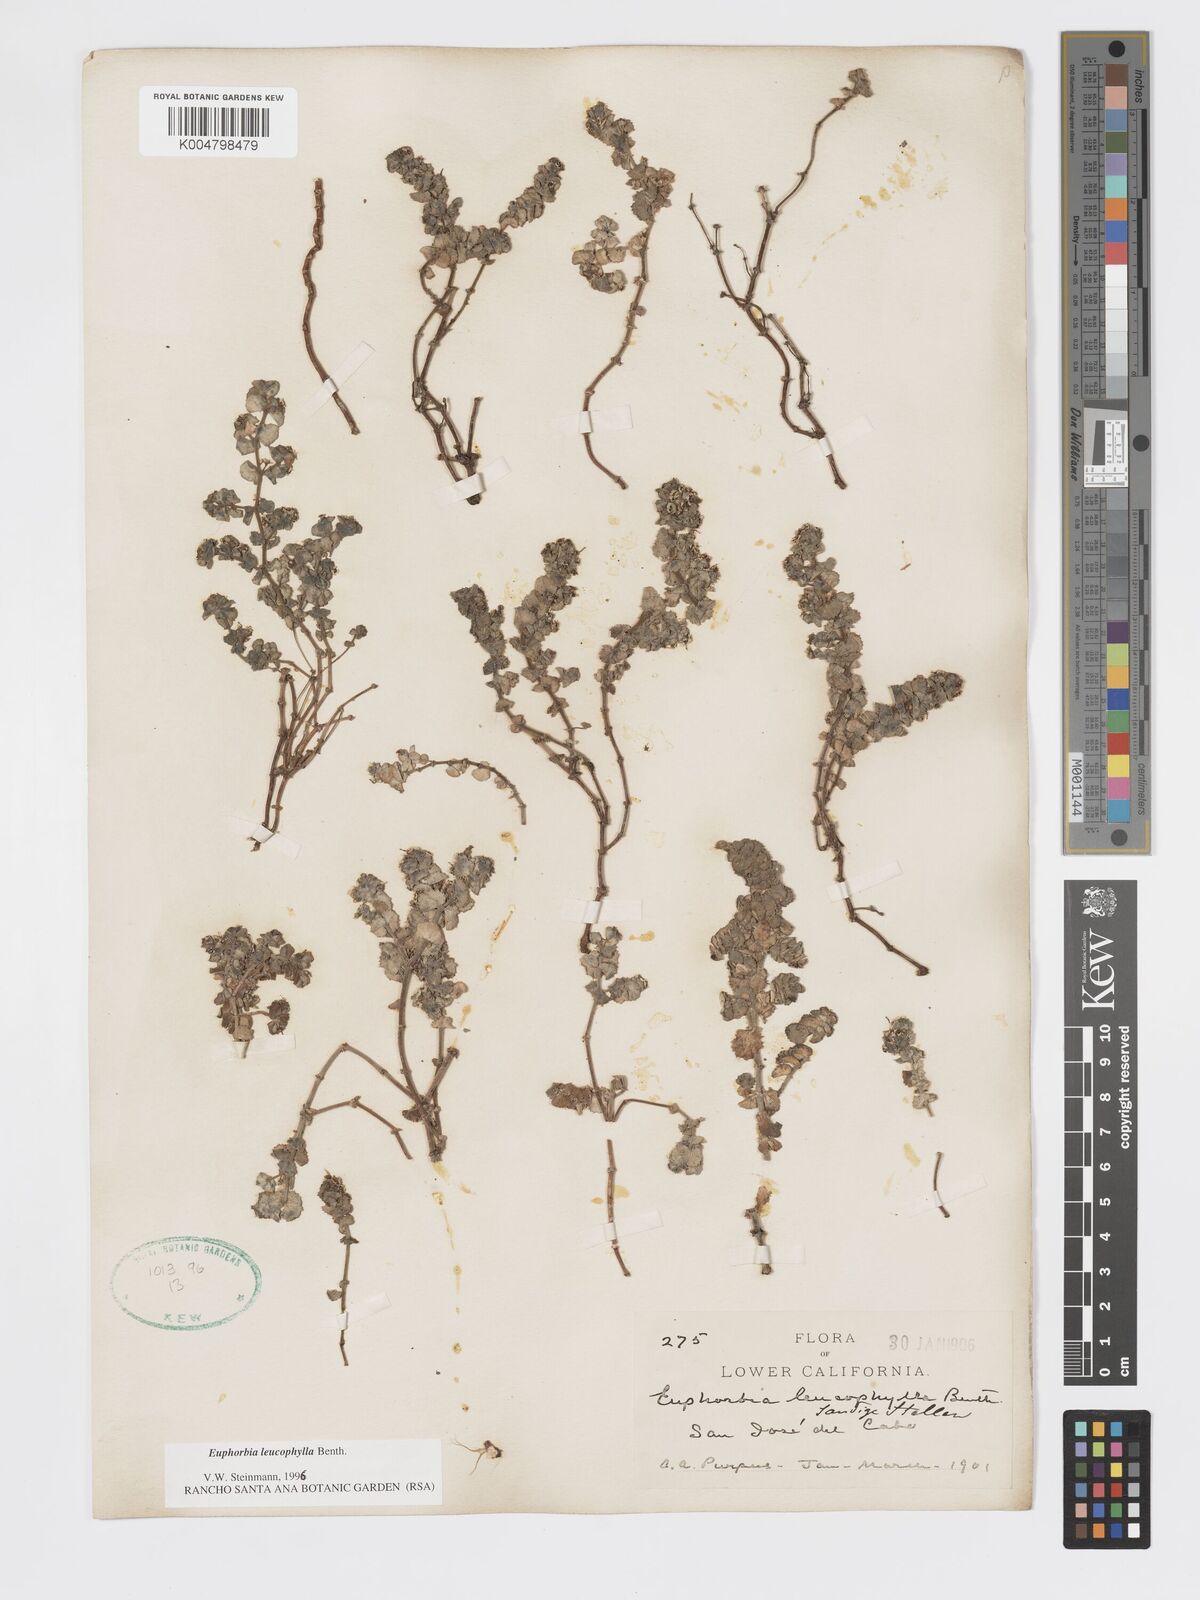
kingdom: Plantae
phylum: Tracheophyta
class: Magnoliopsida
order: Malpighiales
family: Euphorbiaceae
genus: Euphorbia
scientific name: Euphorbia leucophylla
